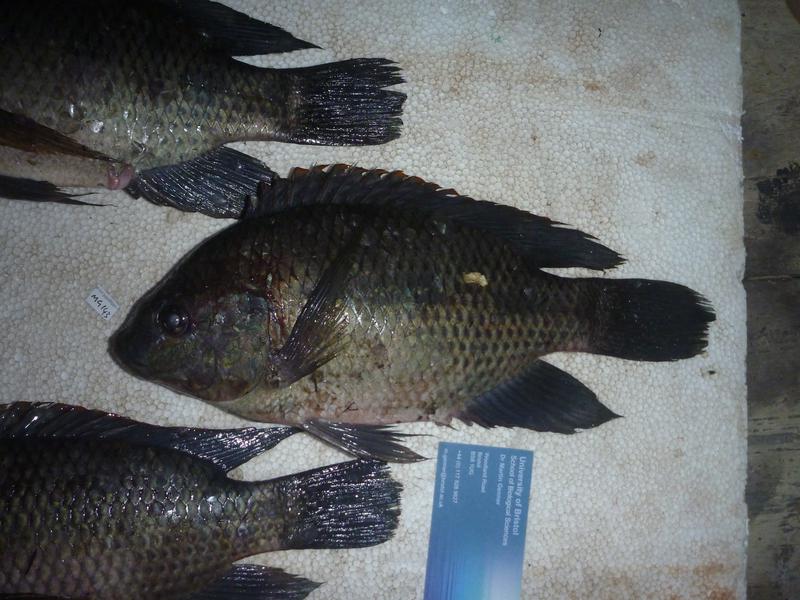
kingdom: Animalia
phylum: Chordata
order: Perciformes
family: Cichlidae
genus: Oreochromis
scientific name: Oreochromis upembae
